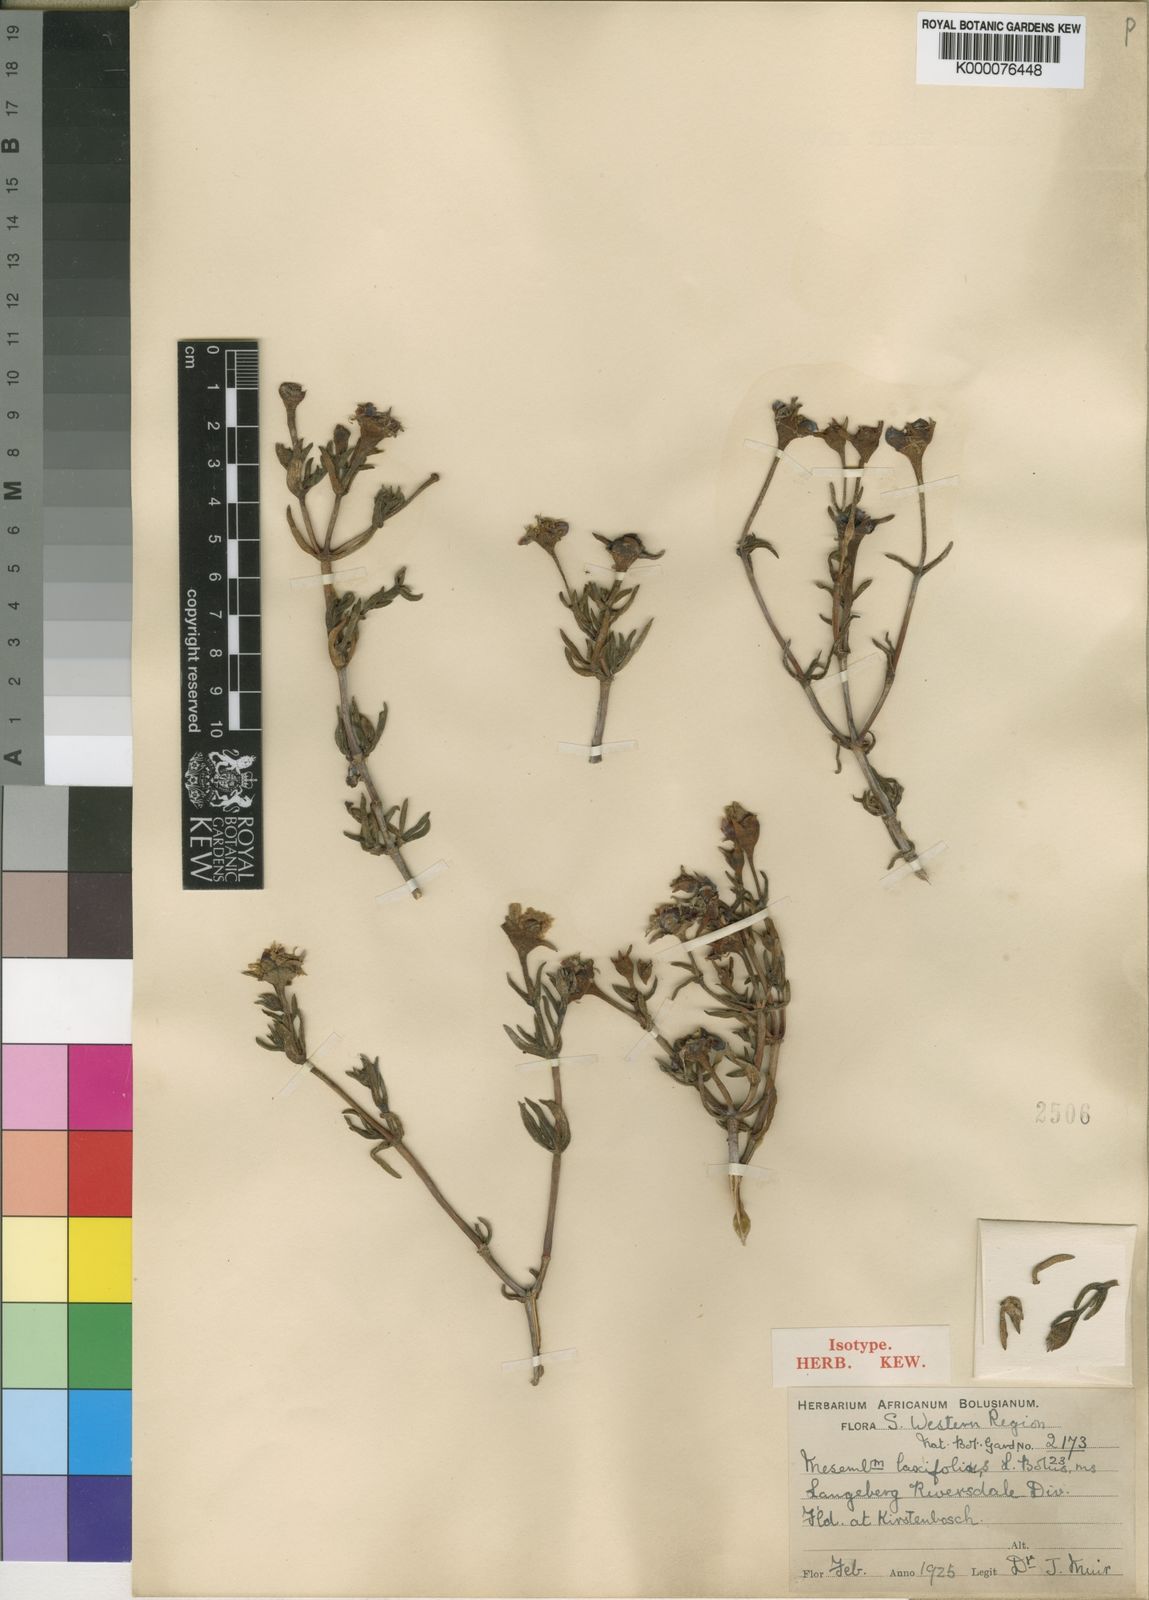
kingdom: Plantae
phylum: Tracheophyta
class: Magnoliopsida
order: Caryophyllales
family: Aizoaceae
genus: Lampranthus
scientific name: Lampranthus laxifolius
